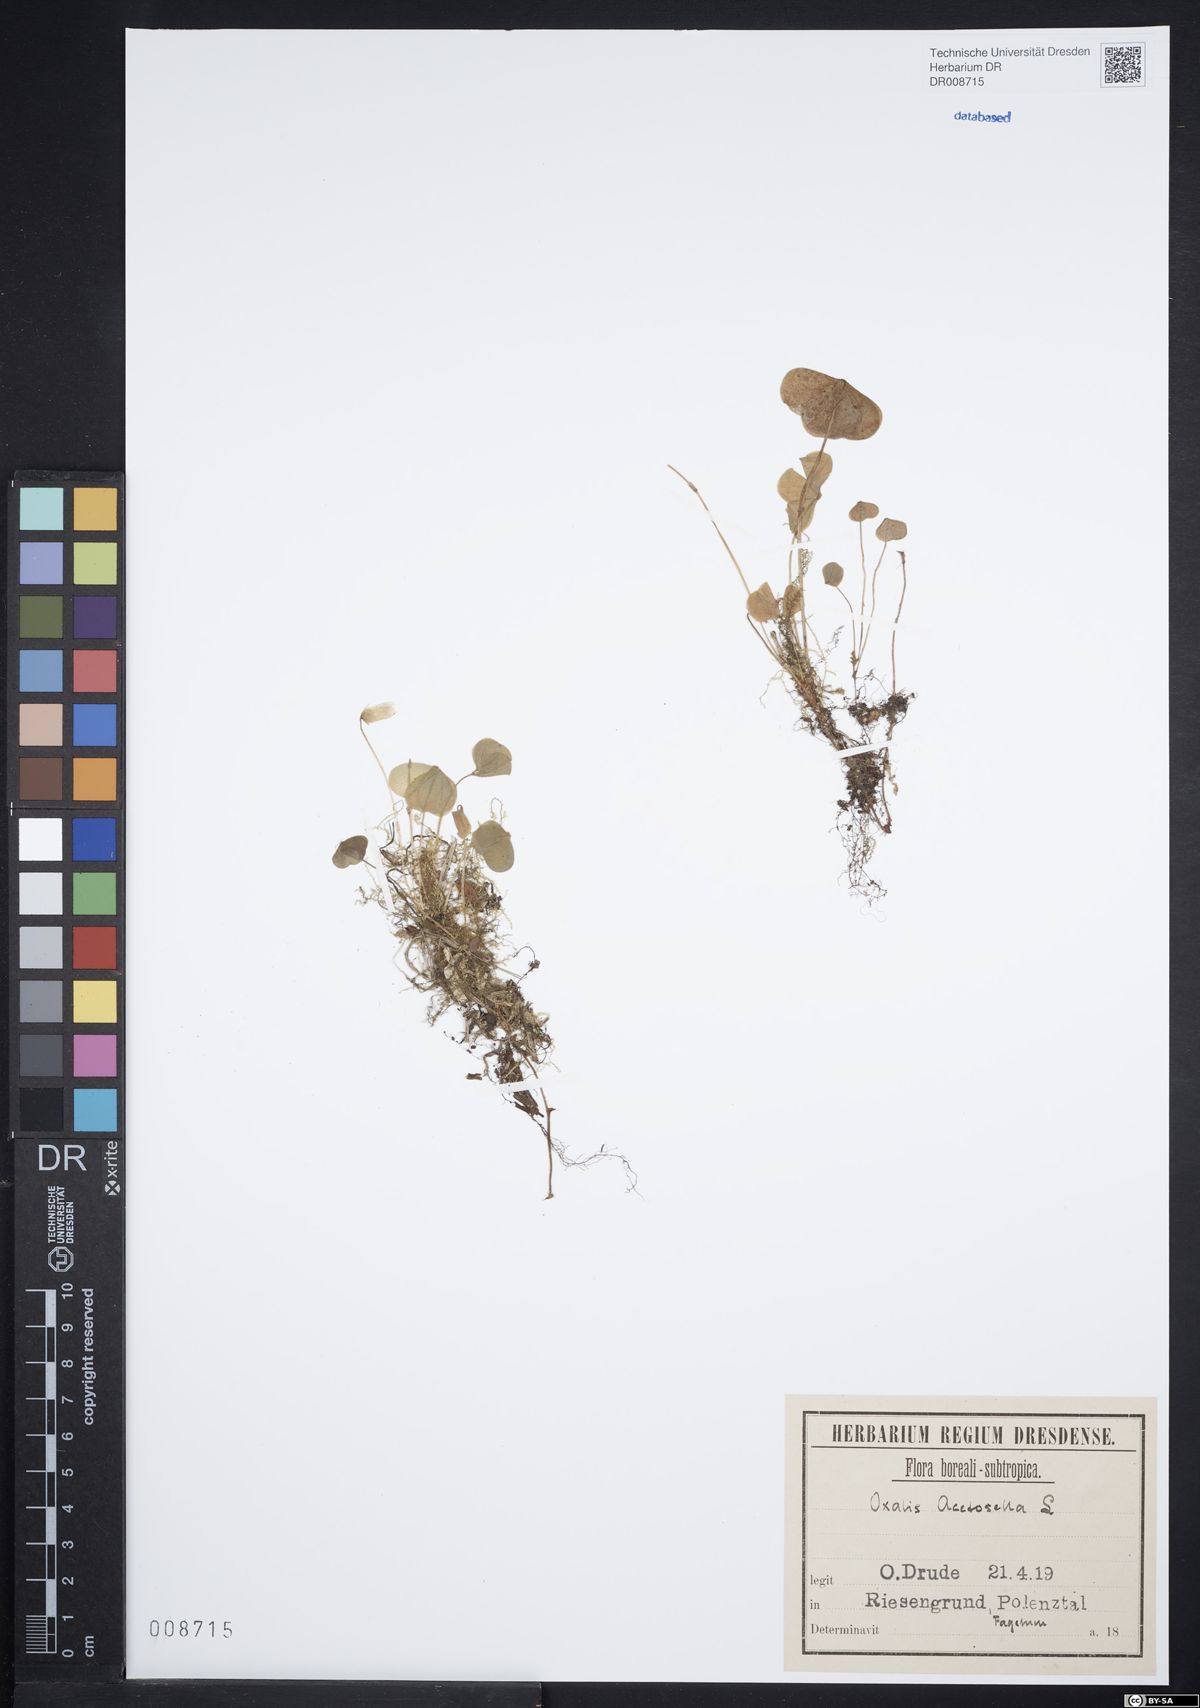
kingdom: Plantae
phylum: Tracheophyta
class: Magnoliopsida
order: Oxalidales
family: Oxalidaceae
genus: Oxalis
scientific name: Oxalis acetosella
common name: Wood-sorrel
